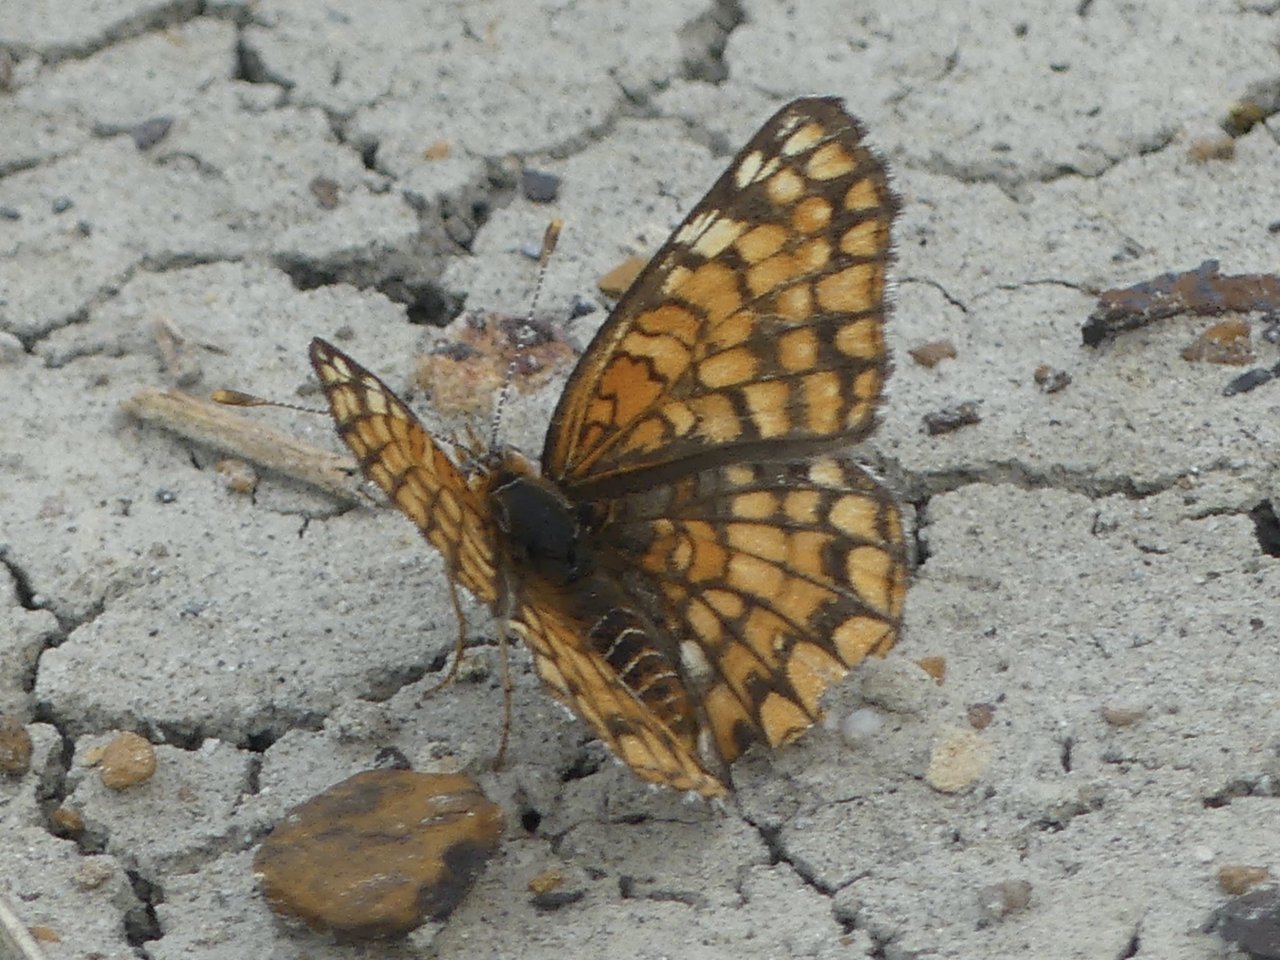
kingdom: Animalia
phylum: Arthropoda
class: Insecta
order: Lepidoptera
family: Nymphalidae
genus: Chlosyne
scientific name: Chlosyne acastus
